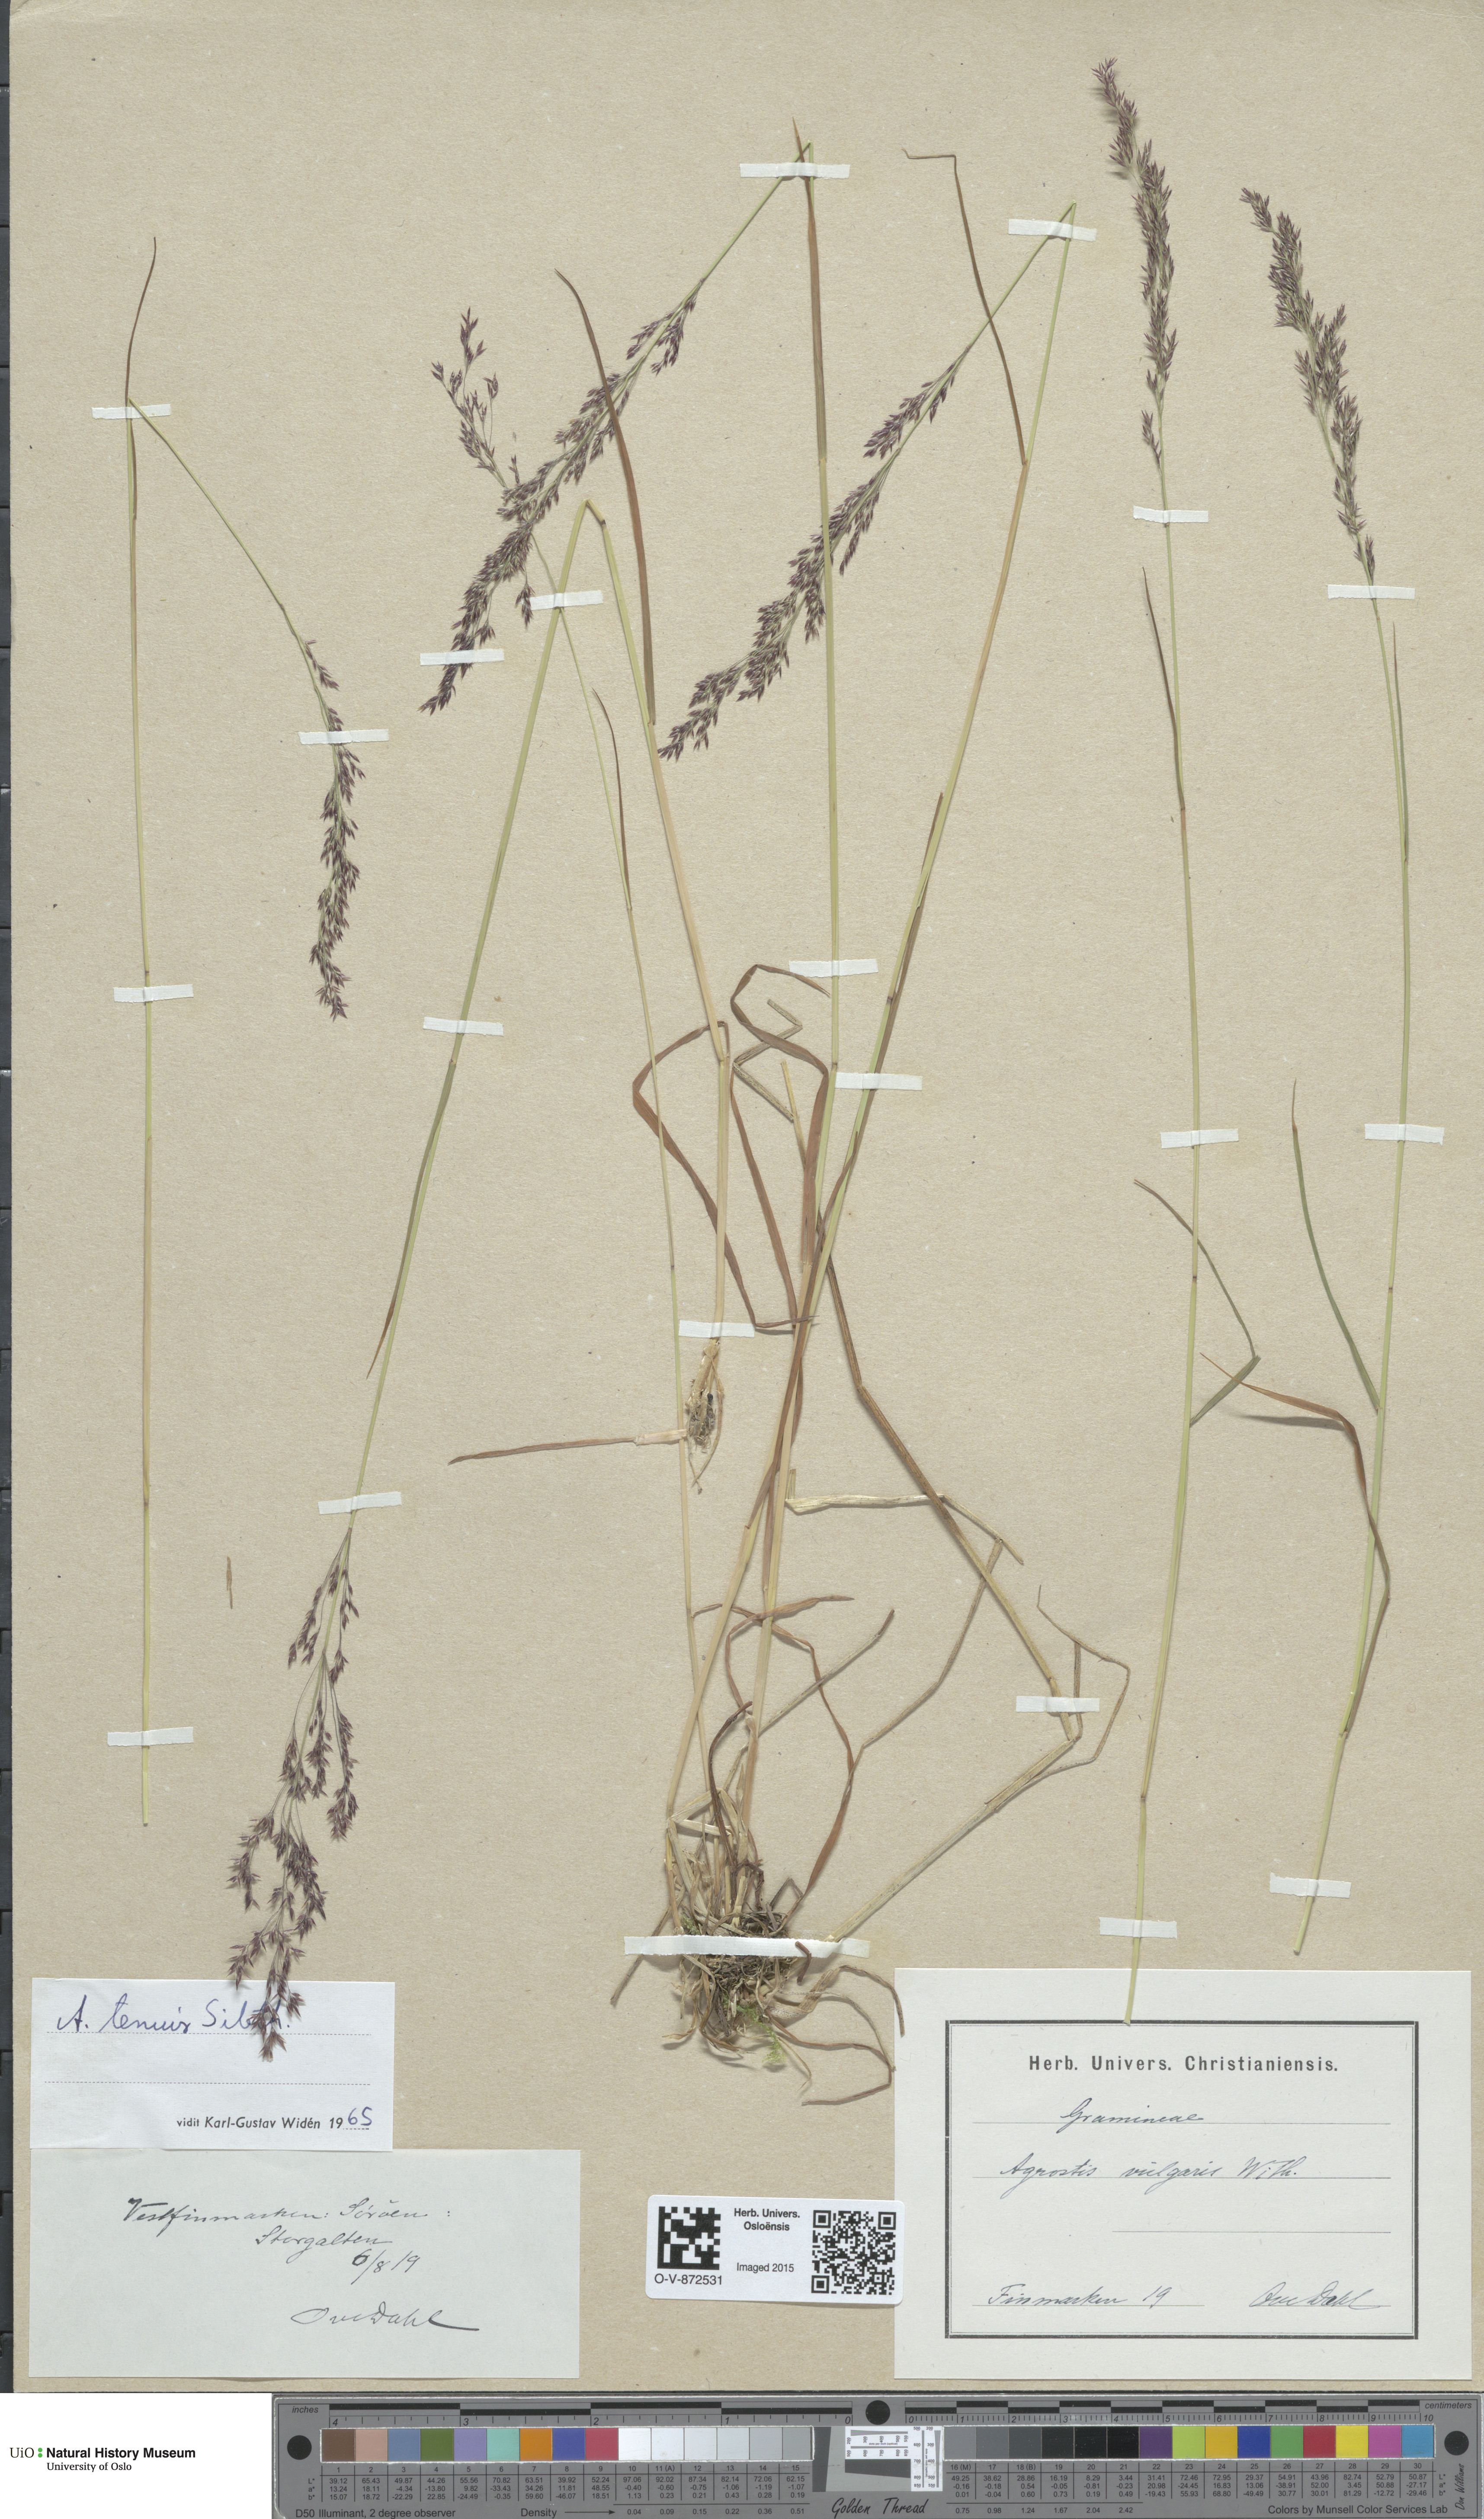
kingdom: Plantae
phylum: Tracheophyta
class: Liliopsida
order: Poales
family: Poaceae
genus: Agrostis
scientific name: Agrostis capillaris
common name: Colonial bentgrass
